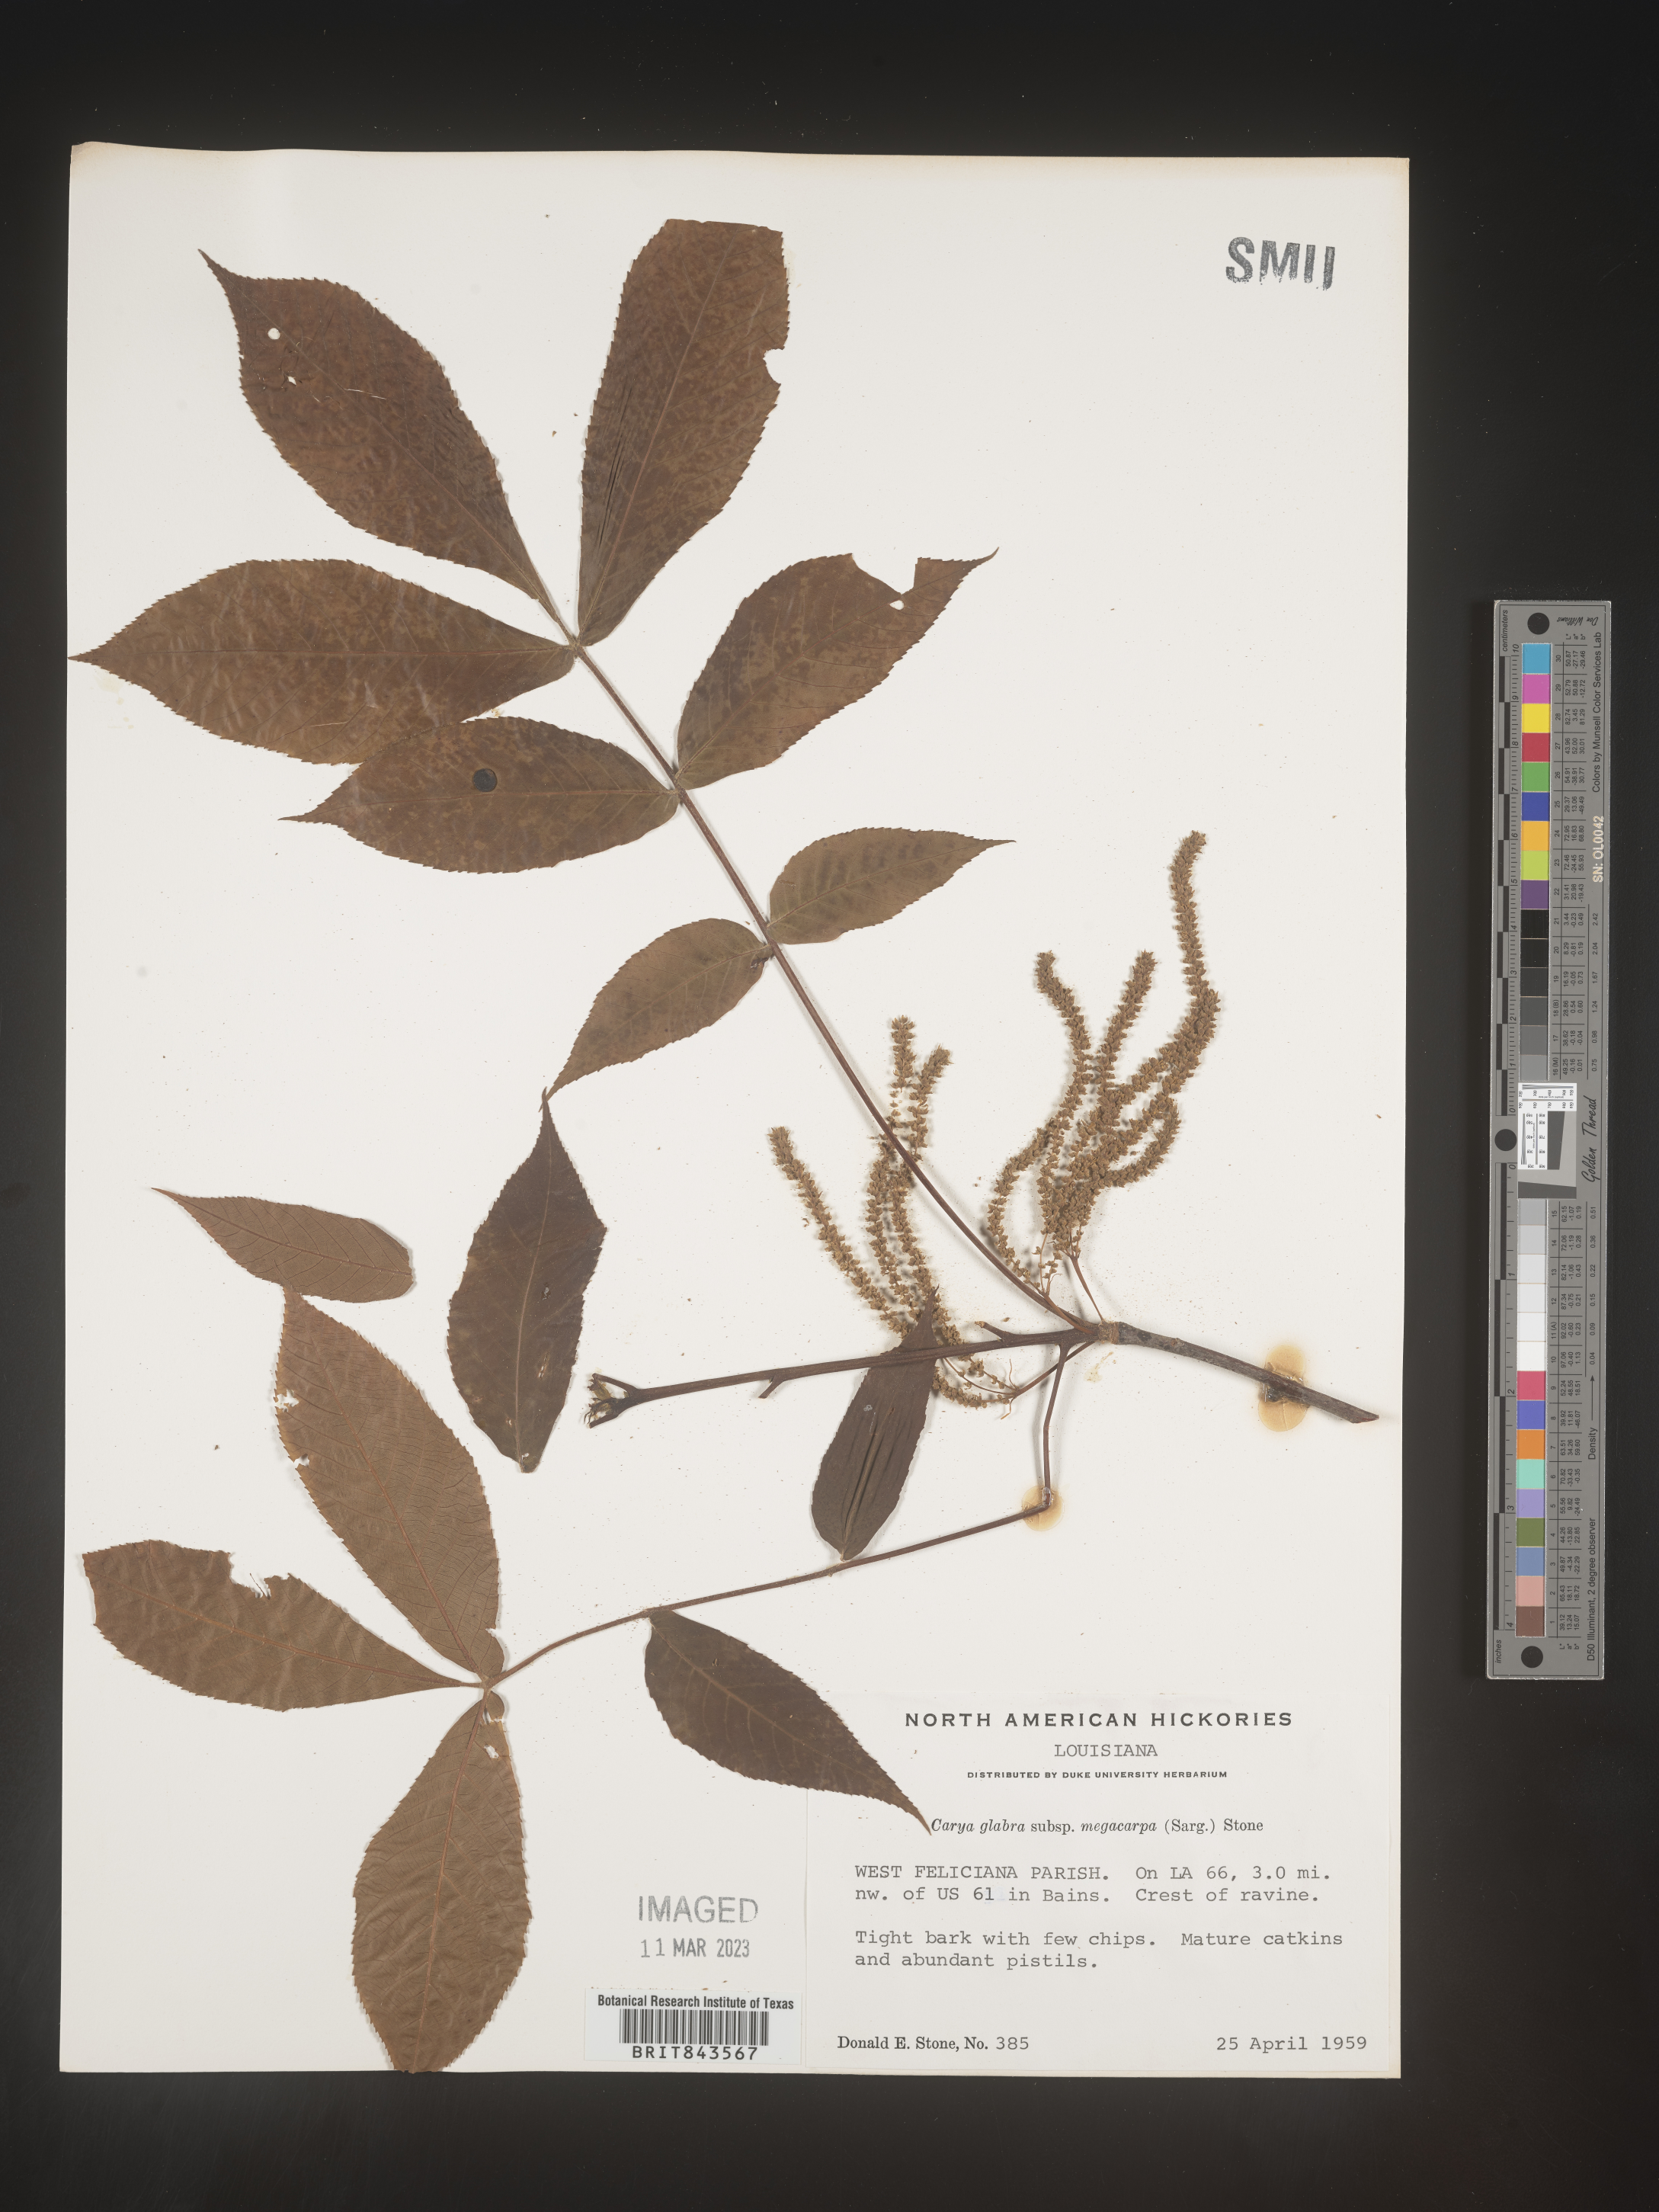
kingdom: Plantae
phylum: Tracheophyta
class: Magnoliopsida
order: Fagales
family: Juglandaceae
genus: Carya
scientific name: Carya glabra
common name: Pignut hickory
